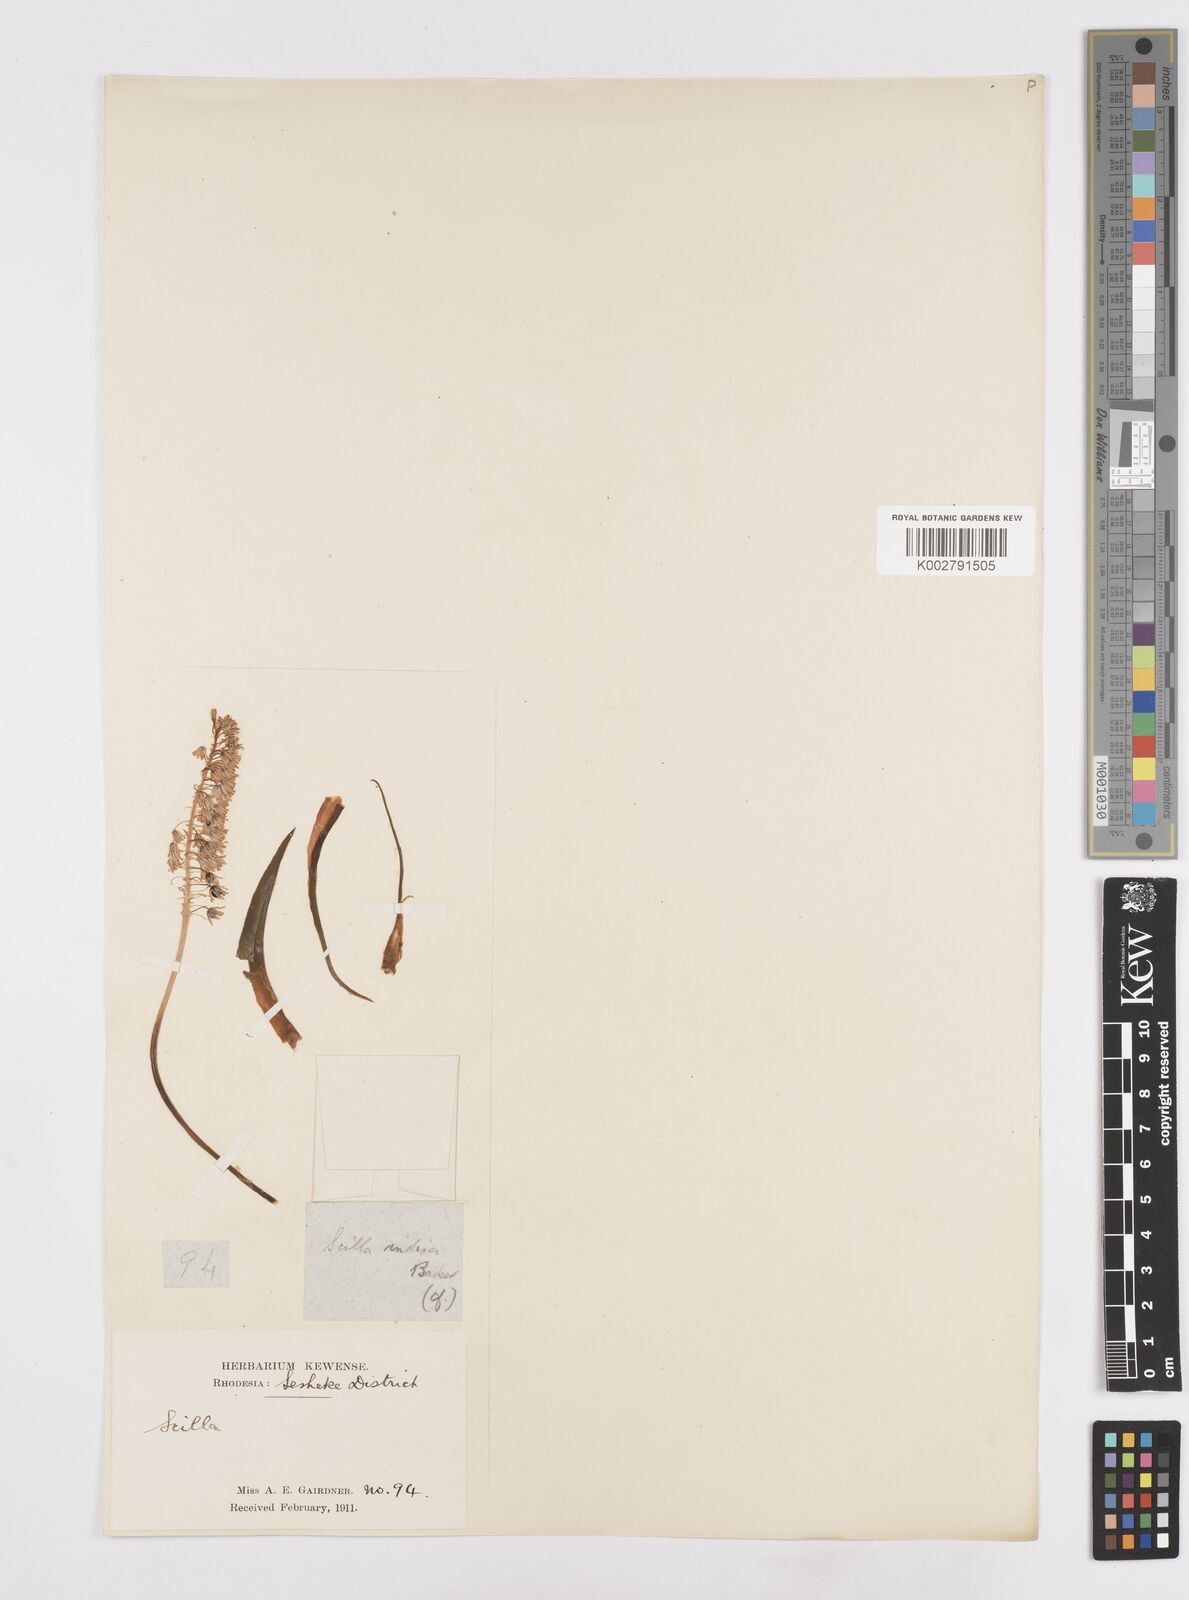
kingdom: Plantae
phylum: Tracheophyta
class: Liliopsida
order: Asparagales
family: Asparagaceae
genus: Scilla
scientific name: Scilla
